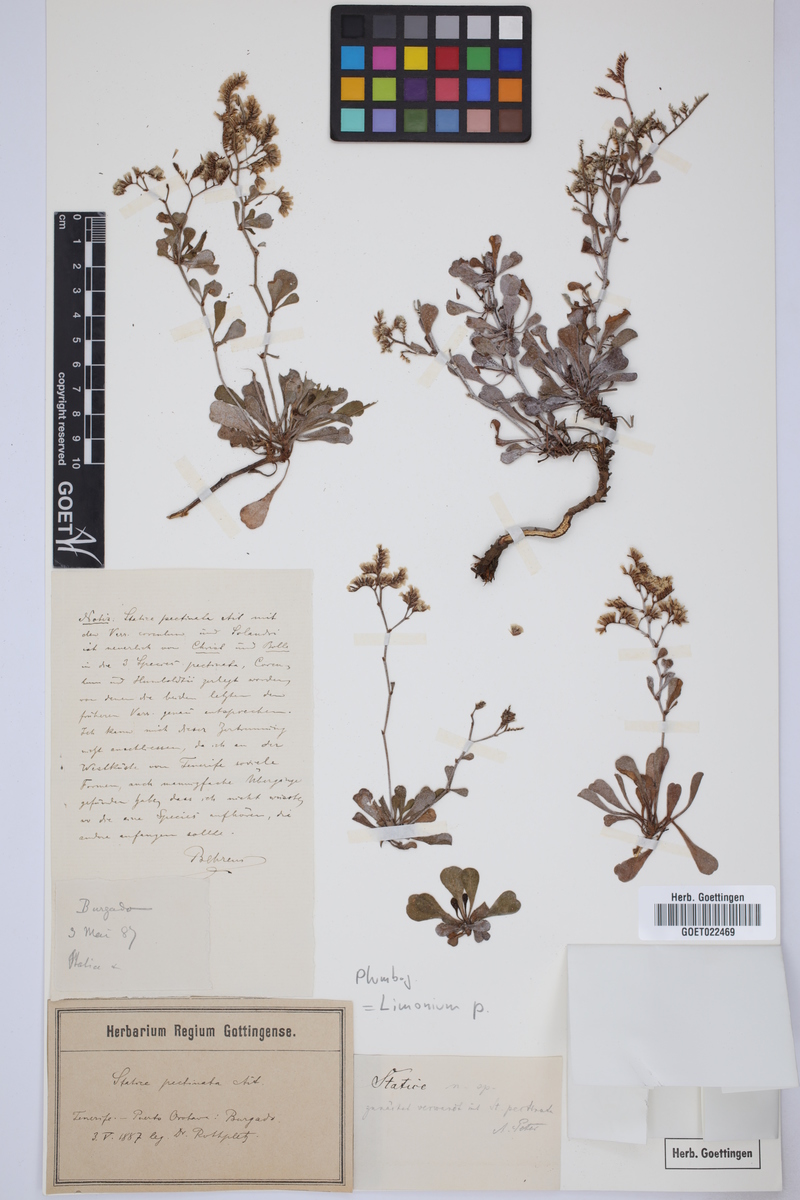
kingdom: Plantae
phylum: Tracheophyta
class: Magnoliopsida
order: Caryophyllales
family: Plumbaginaceae
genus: Limonium
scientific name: Limonium pectinatum
